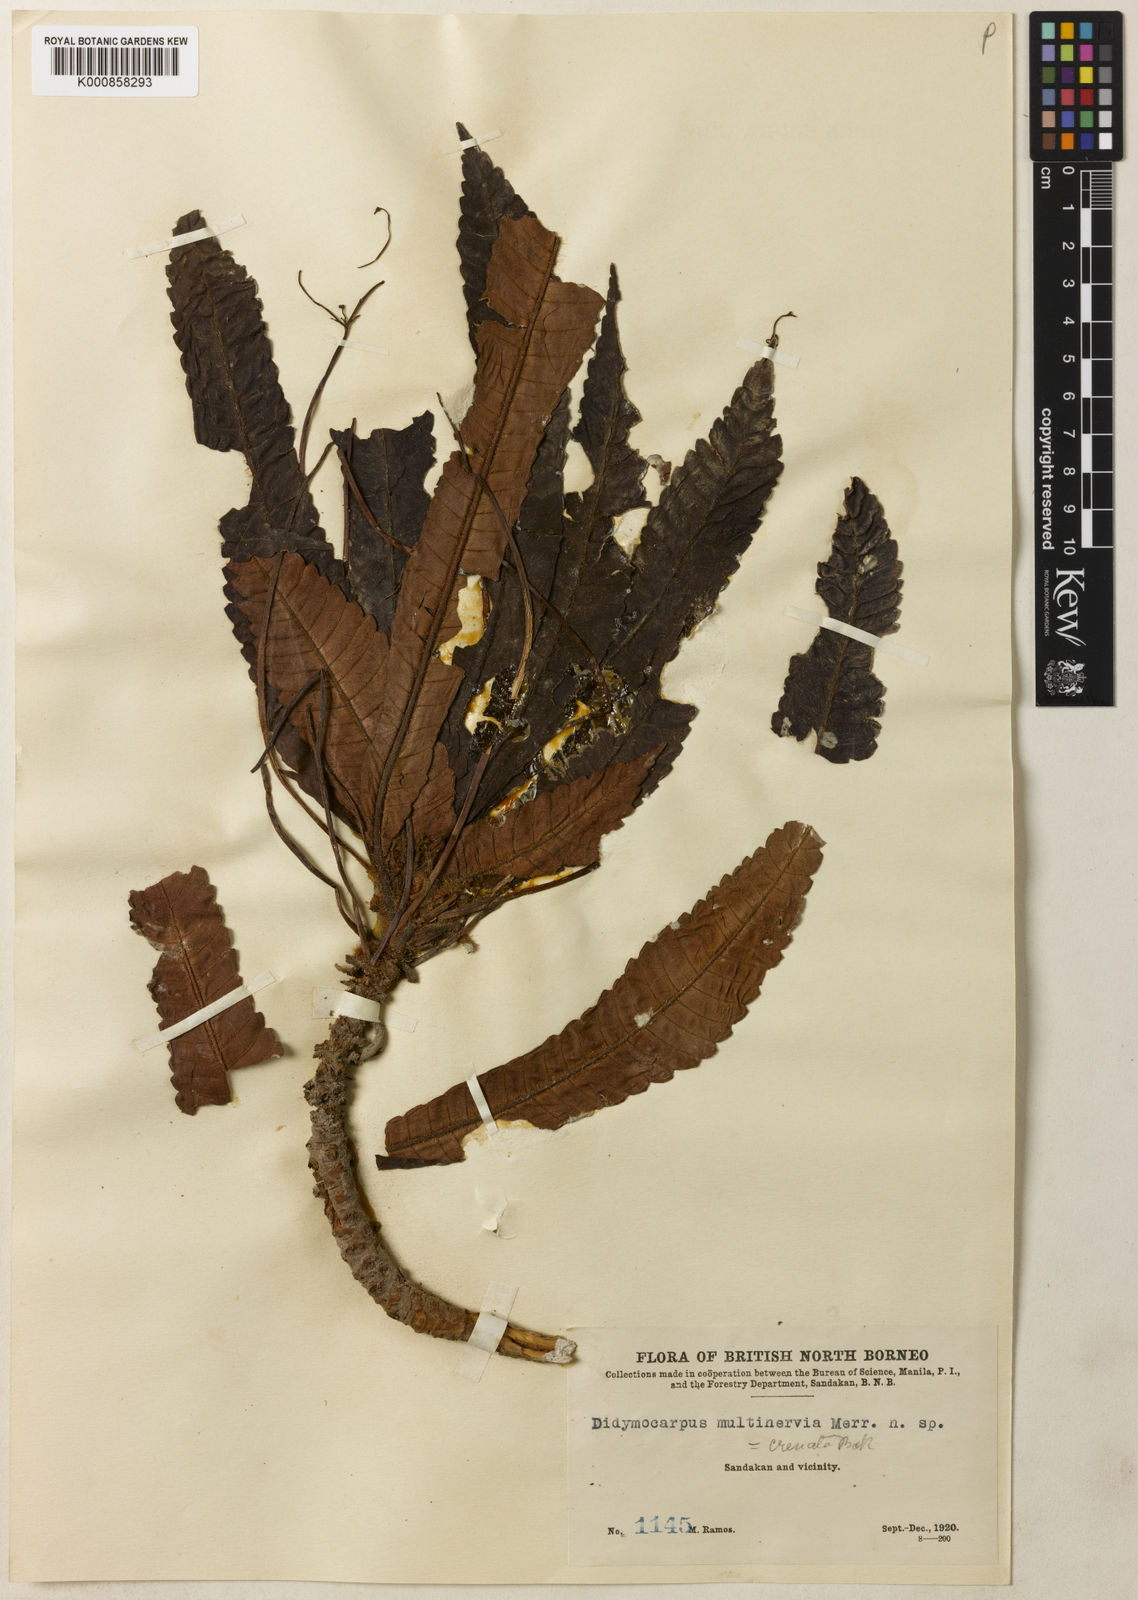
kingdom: Plantae
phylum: Tracheophyta
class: Magnoliopsida
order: Lamiales
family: Gesneriaceae
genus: Codonoboea
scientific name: Codonoboea crenata
